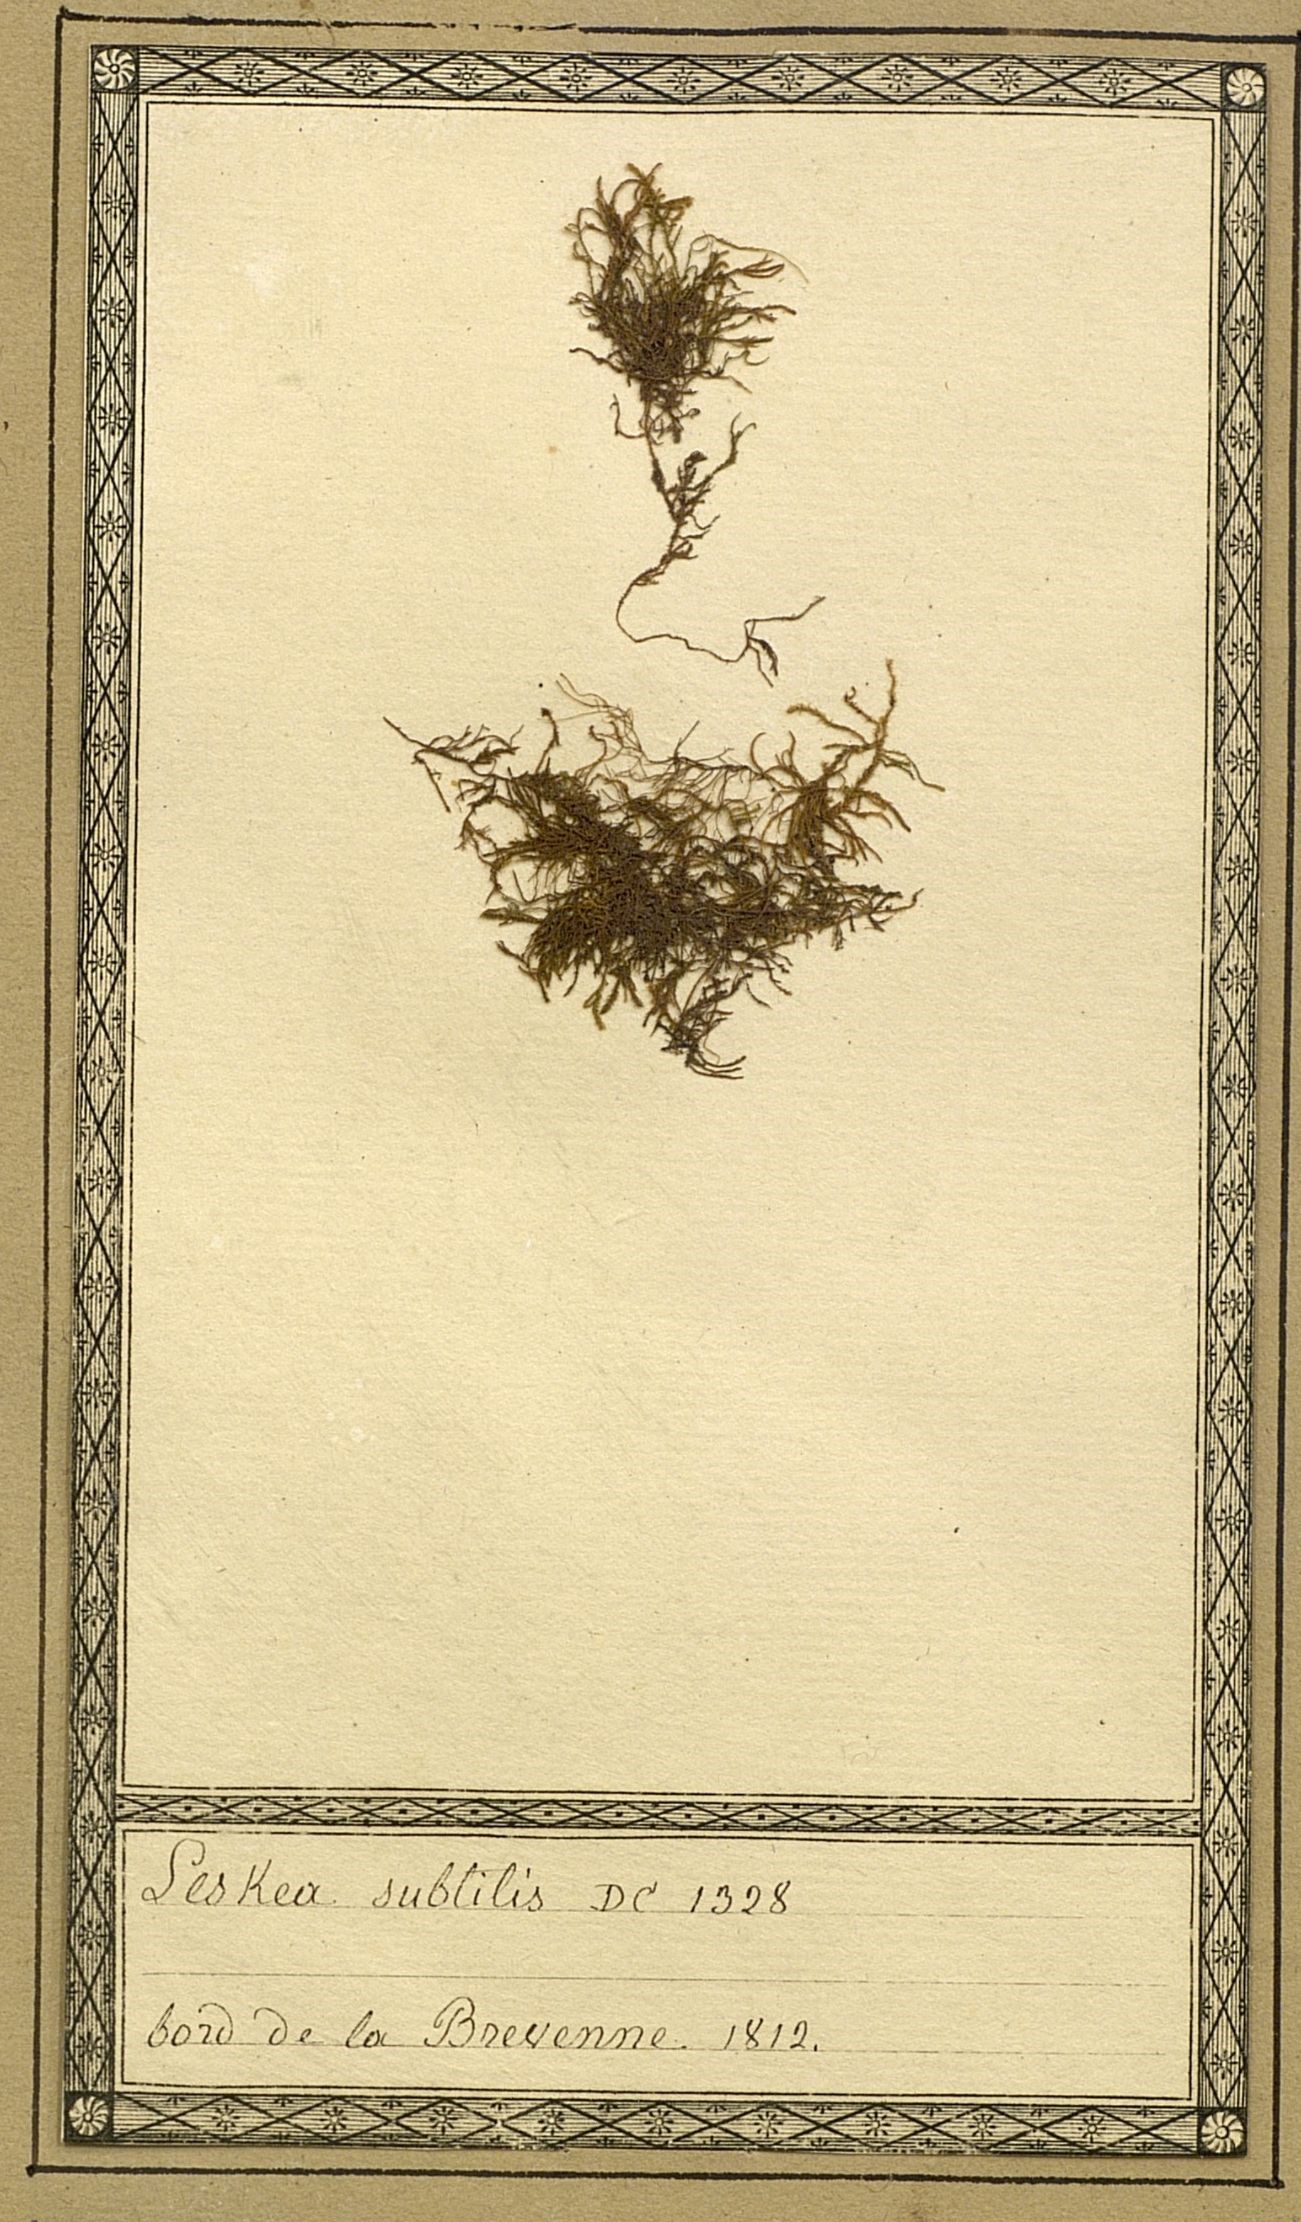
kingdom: Plantae
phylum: Bryophyta
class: Bryopsida
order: Hypnales
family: Amblystegiaceae
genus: Pseudoamblystegium
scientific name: Pseudoamblystegium subtile
